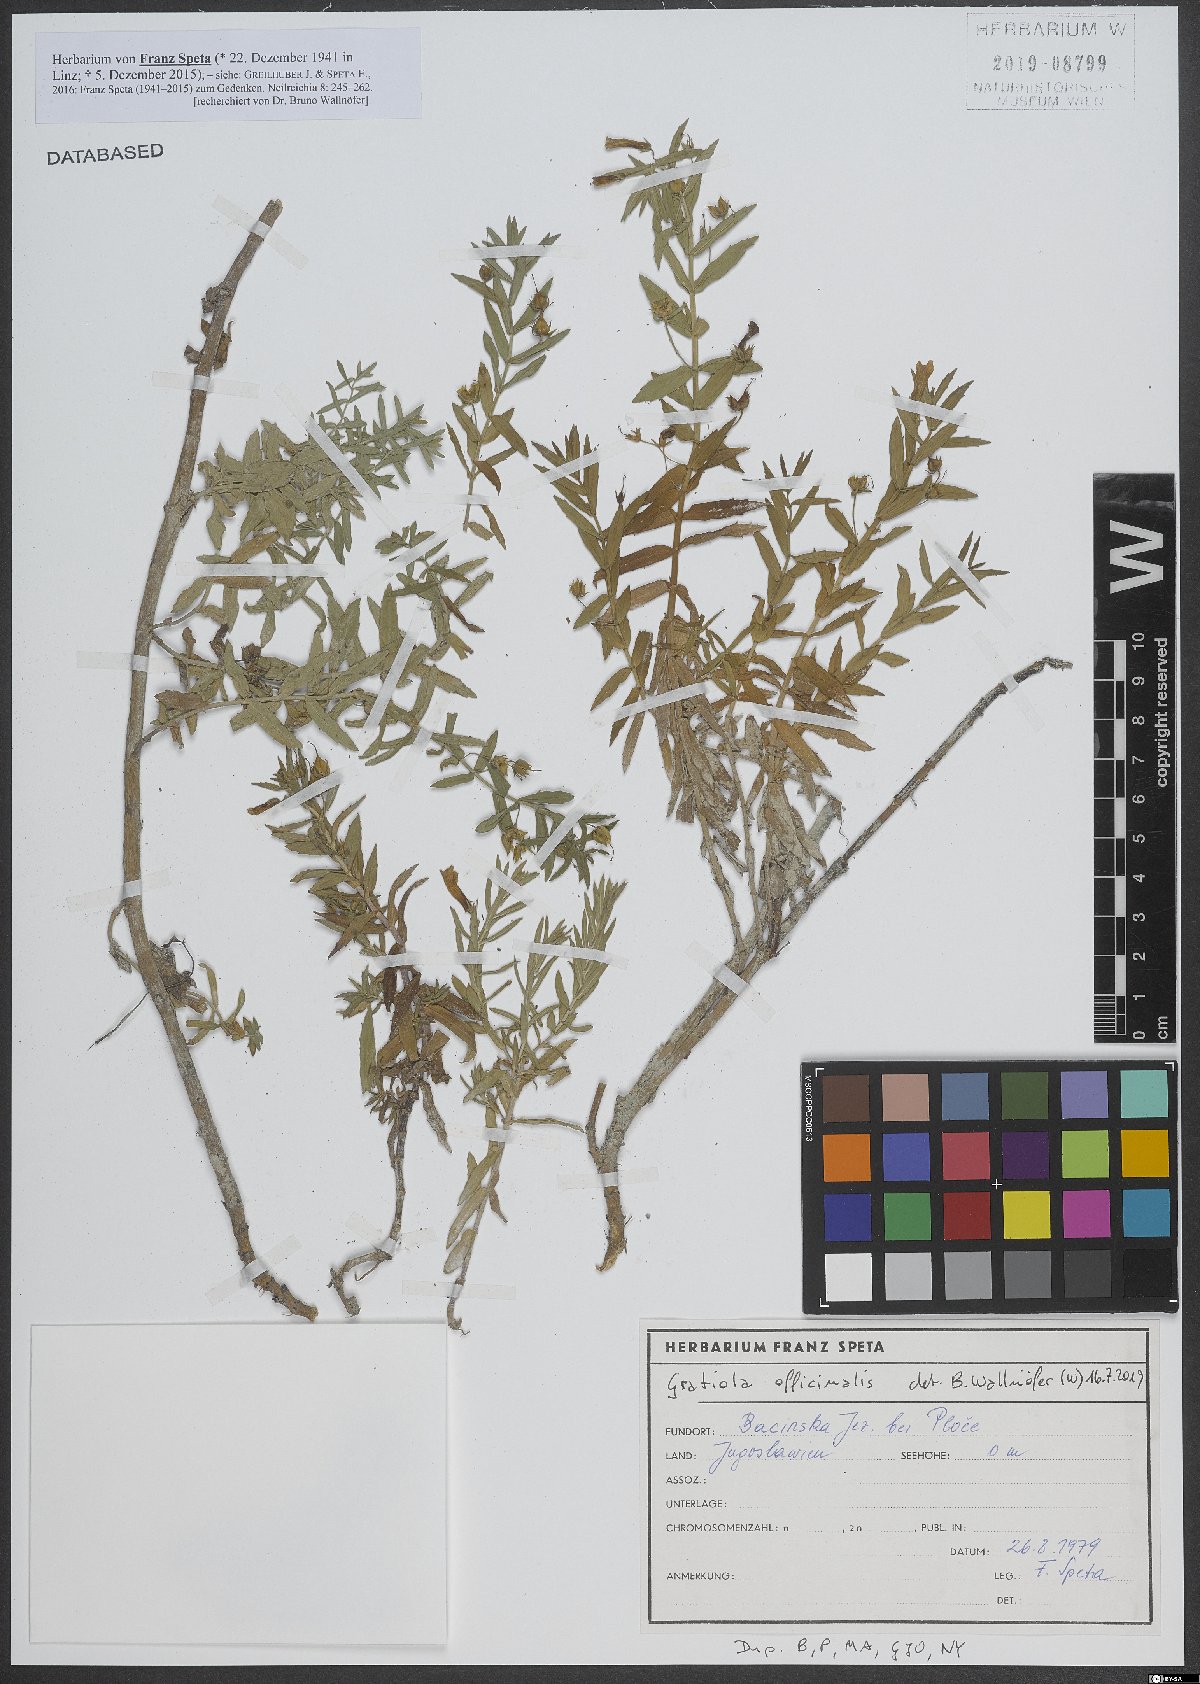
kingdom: Plantae
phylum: Tracheophyta
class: Magnoliopsida
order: Lamiales
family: Plantaginaceae
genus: Gratiola
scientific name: Gratiola officinalis
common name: Gratiola
